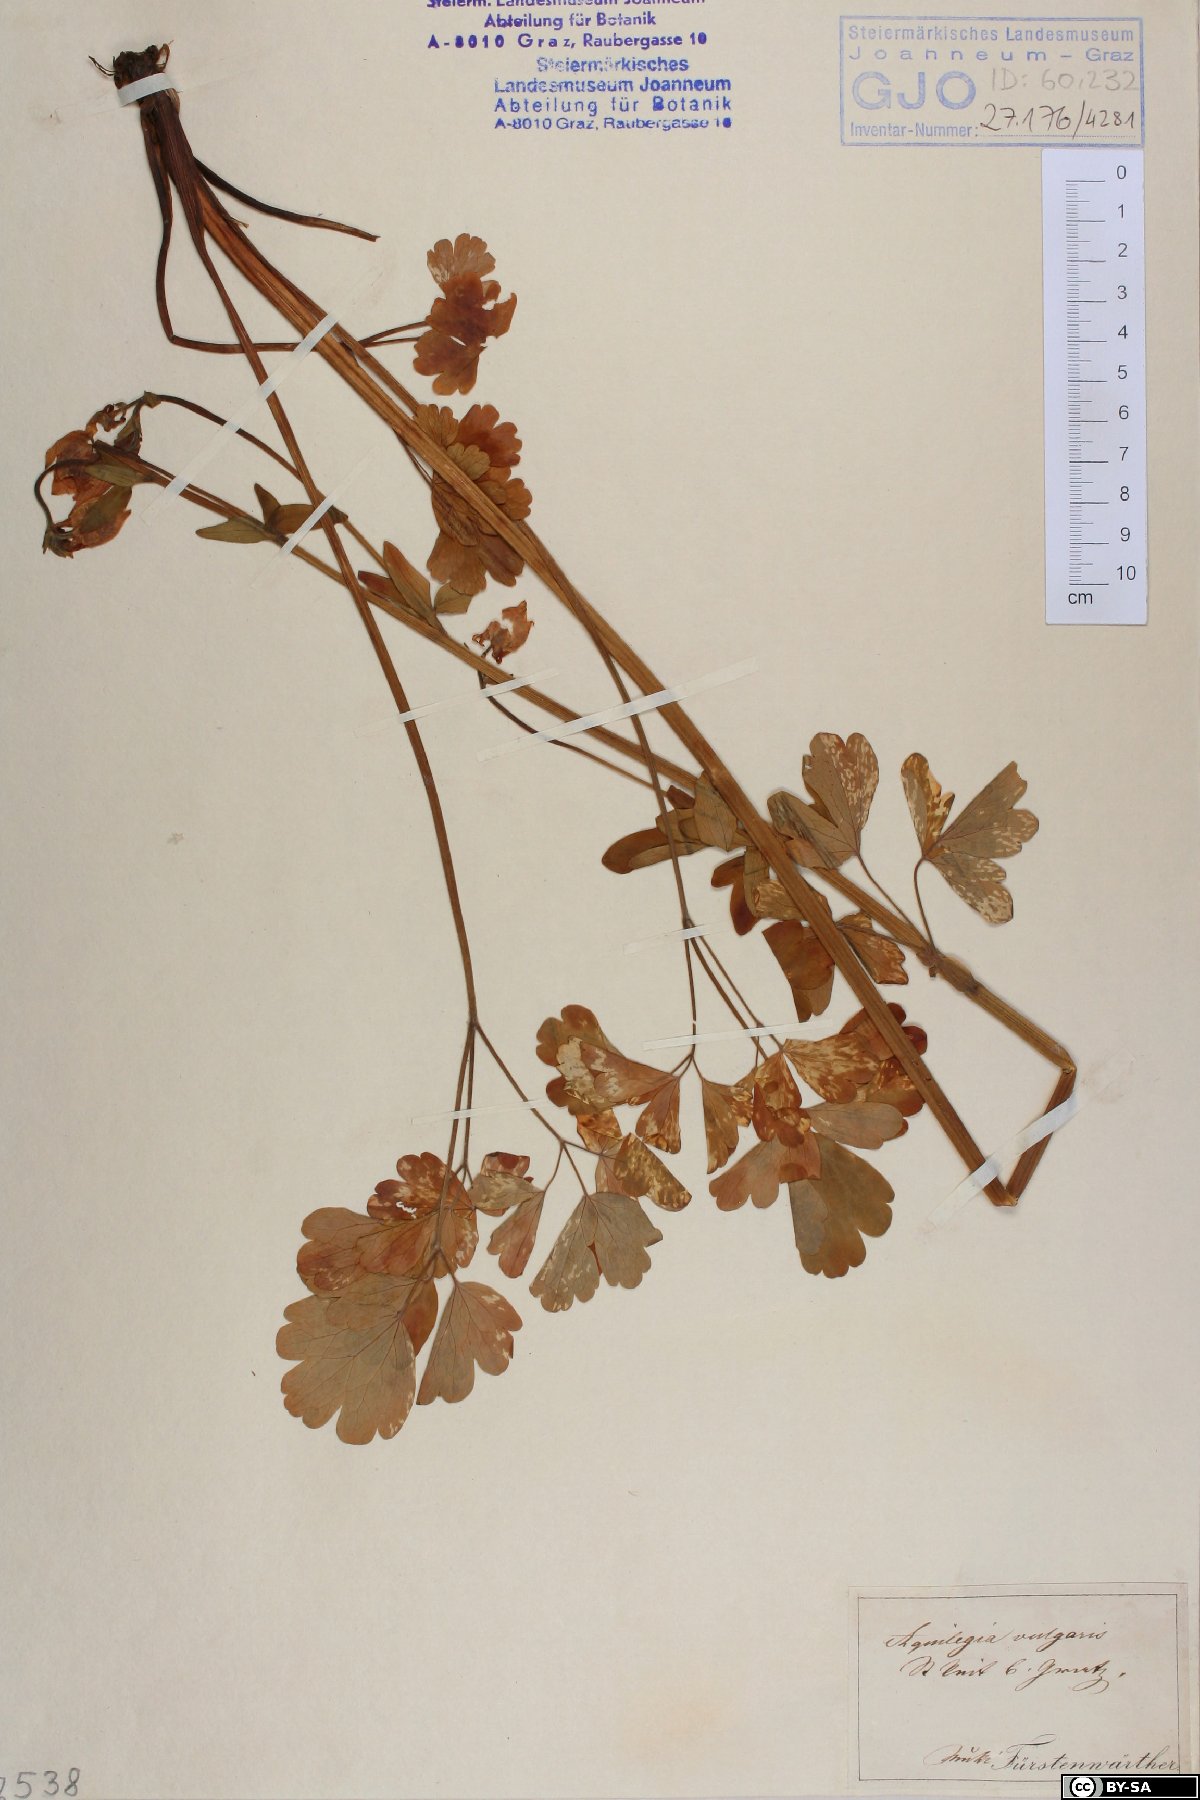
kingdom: Plantae
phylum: Tracheophyta
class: Magnoliopsida
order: Ranunculales
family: Ranunculaceae
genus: Aquilegia
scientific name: Aquilegia vulgaris
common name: Columbine
